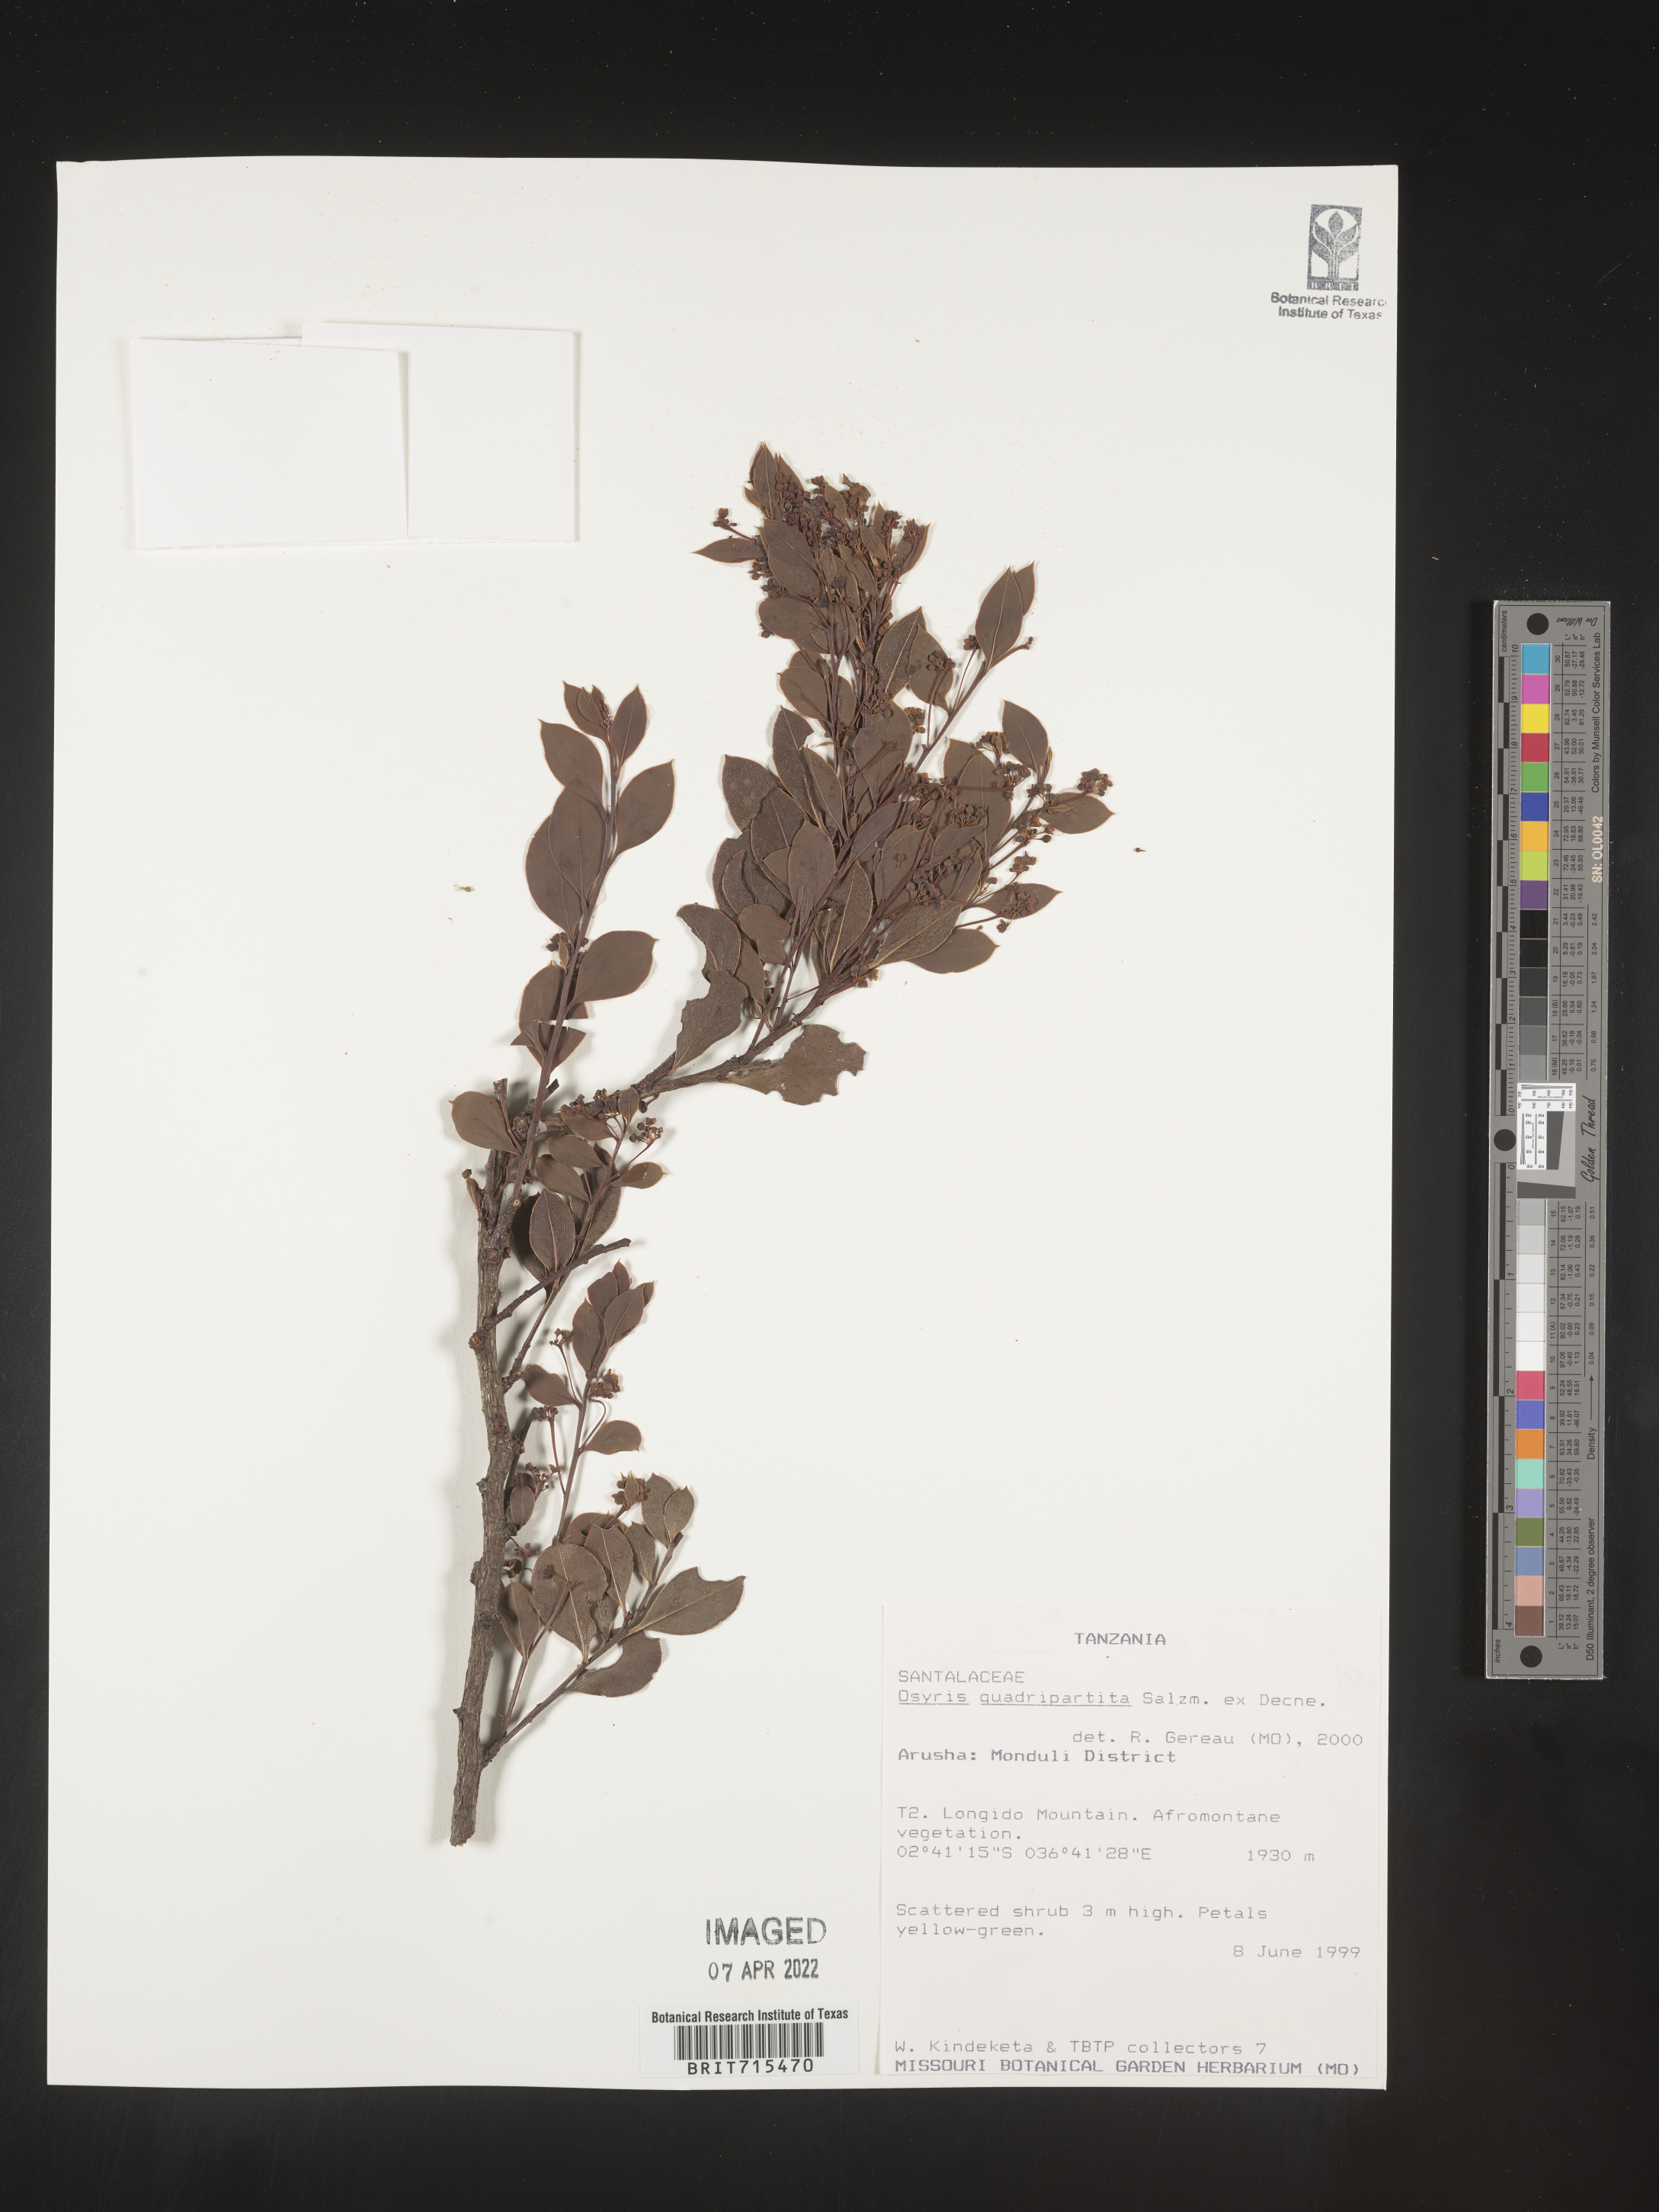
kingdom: Plantae
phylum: Tracheophyta
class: Magnoliopsida
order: Santalales
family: Santalaceae
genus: Osyris
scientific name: Osyris
